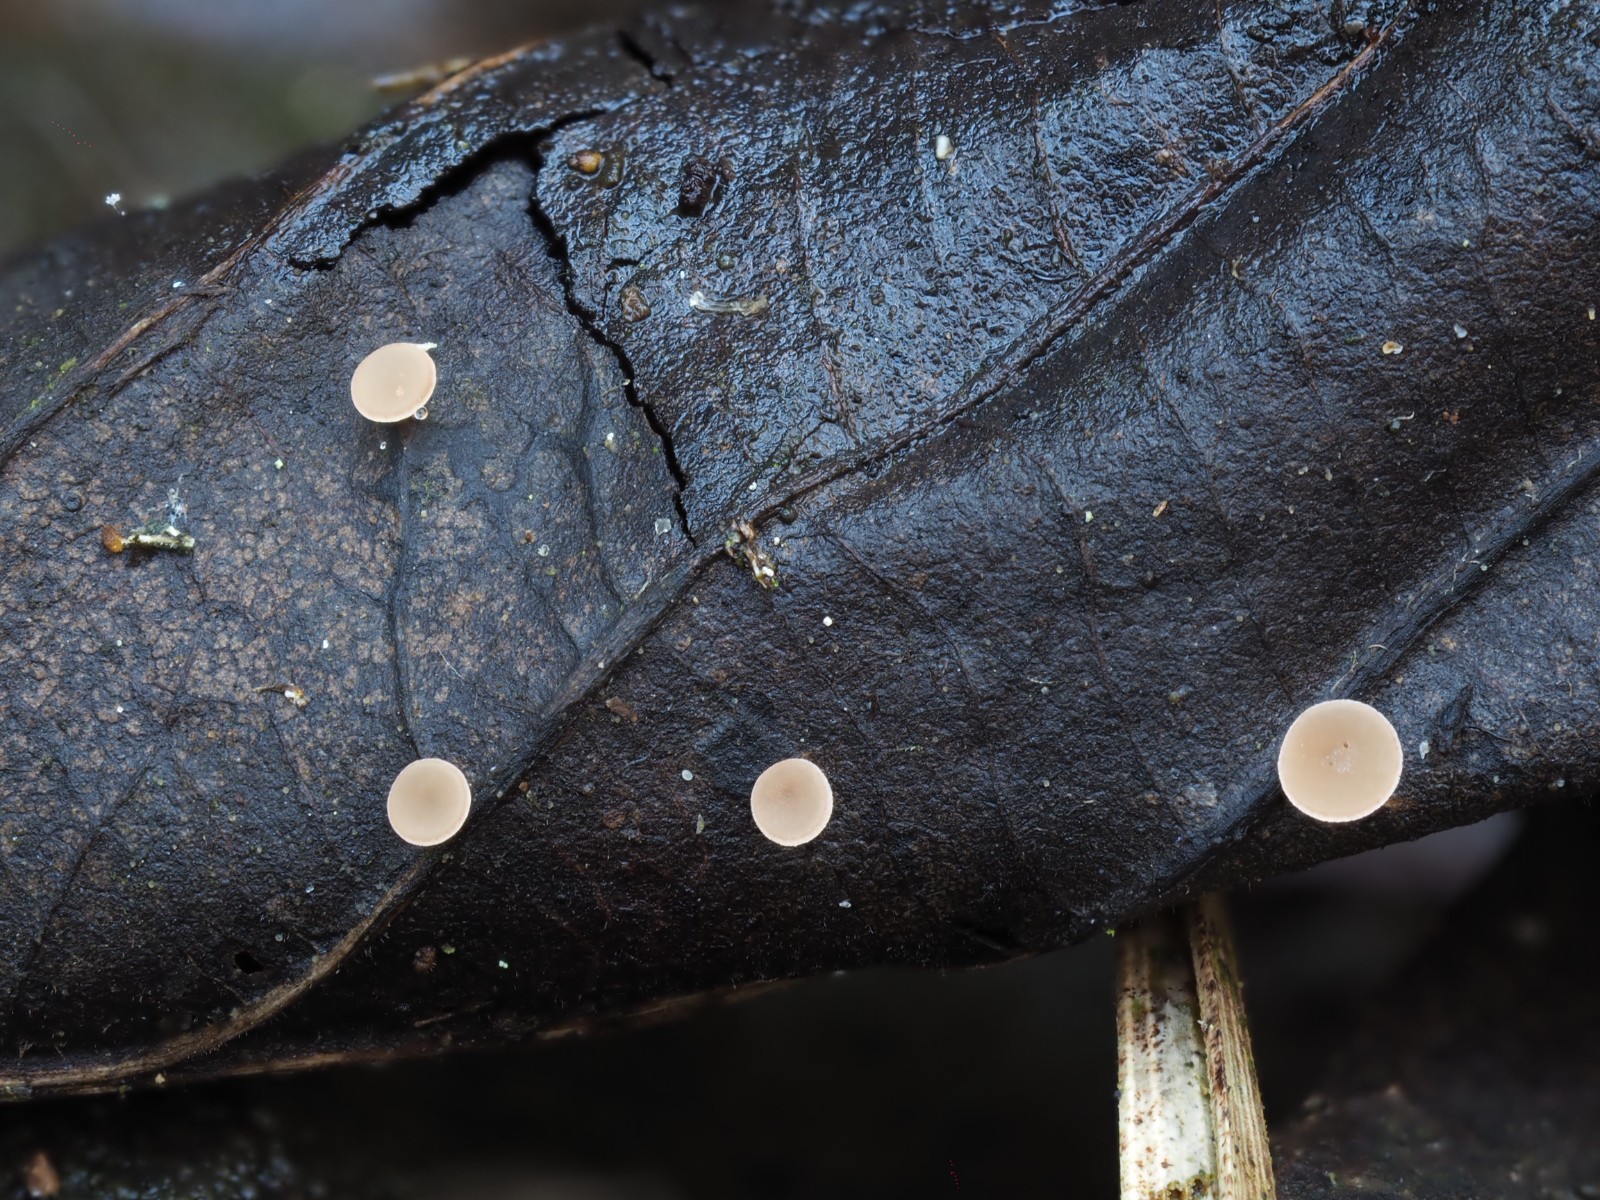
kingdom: Fungi
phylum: Ascomycota
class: Leotiomycetes
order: Helotiales
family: Rutstroemiaceae
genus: Rutstroemia
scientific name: Rutstroemia conformata
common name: elleblads-brunskive
